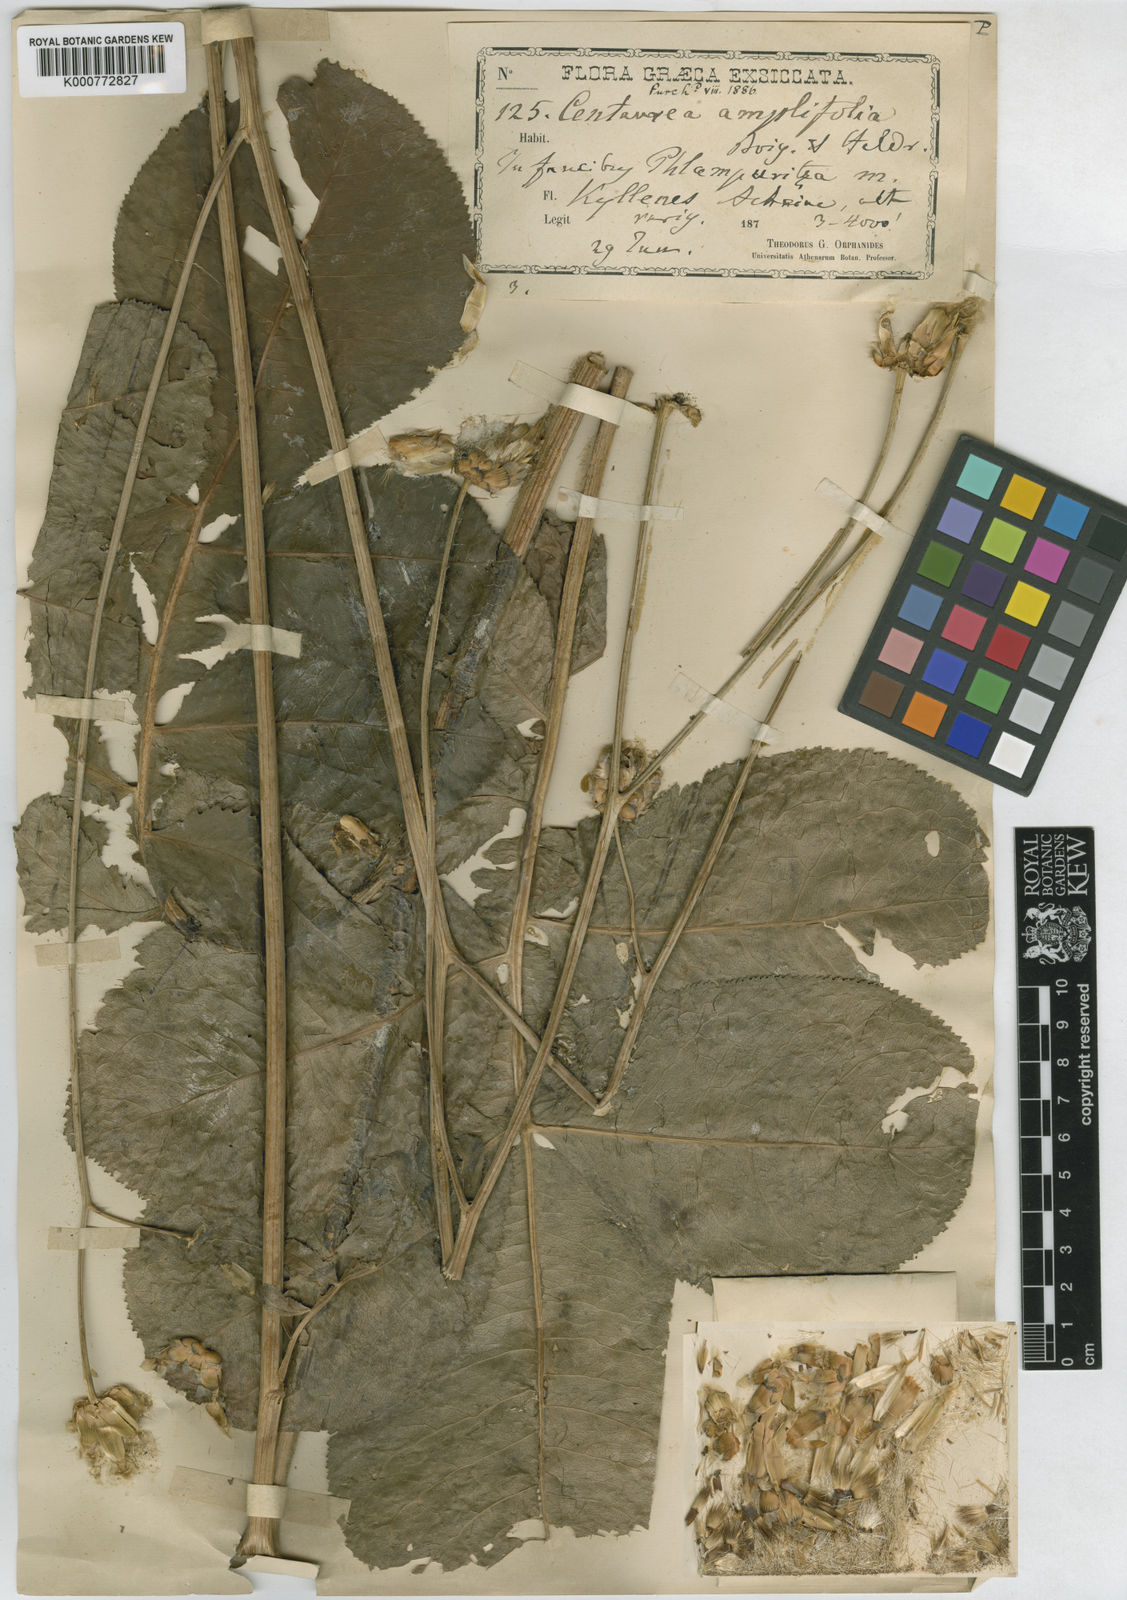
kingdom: Plantae
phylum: Tracheophyta
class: Magnoliopsida
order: Asterales
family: Asteraceae
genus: Rhaponticoides
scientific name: Rhaponticoides amplifolia
